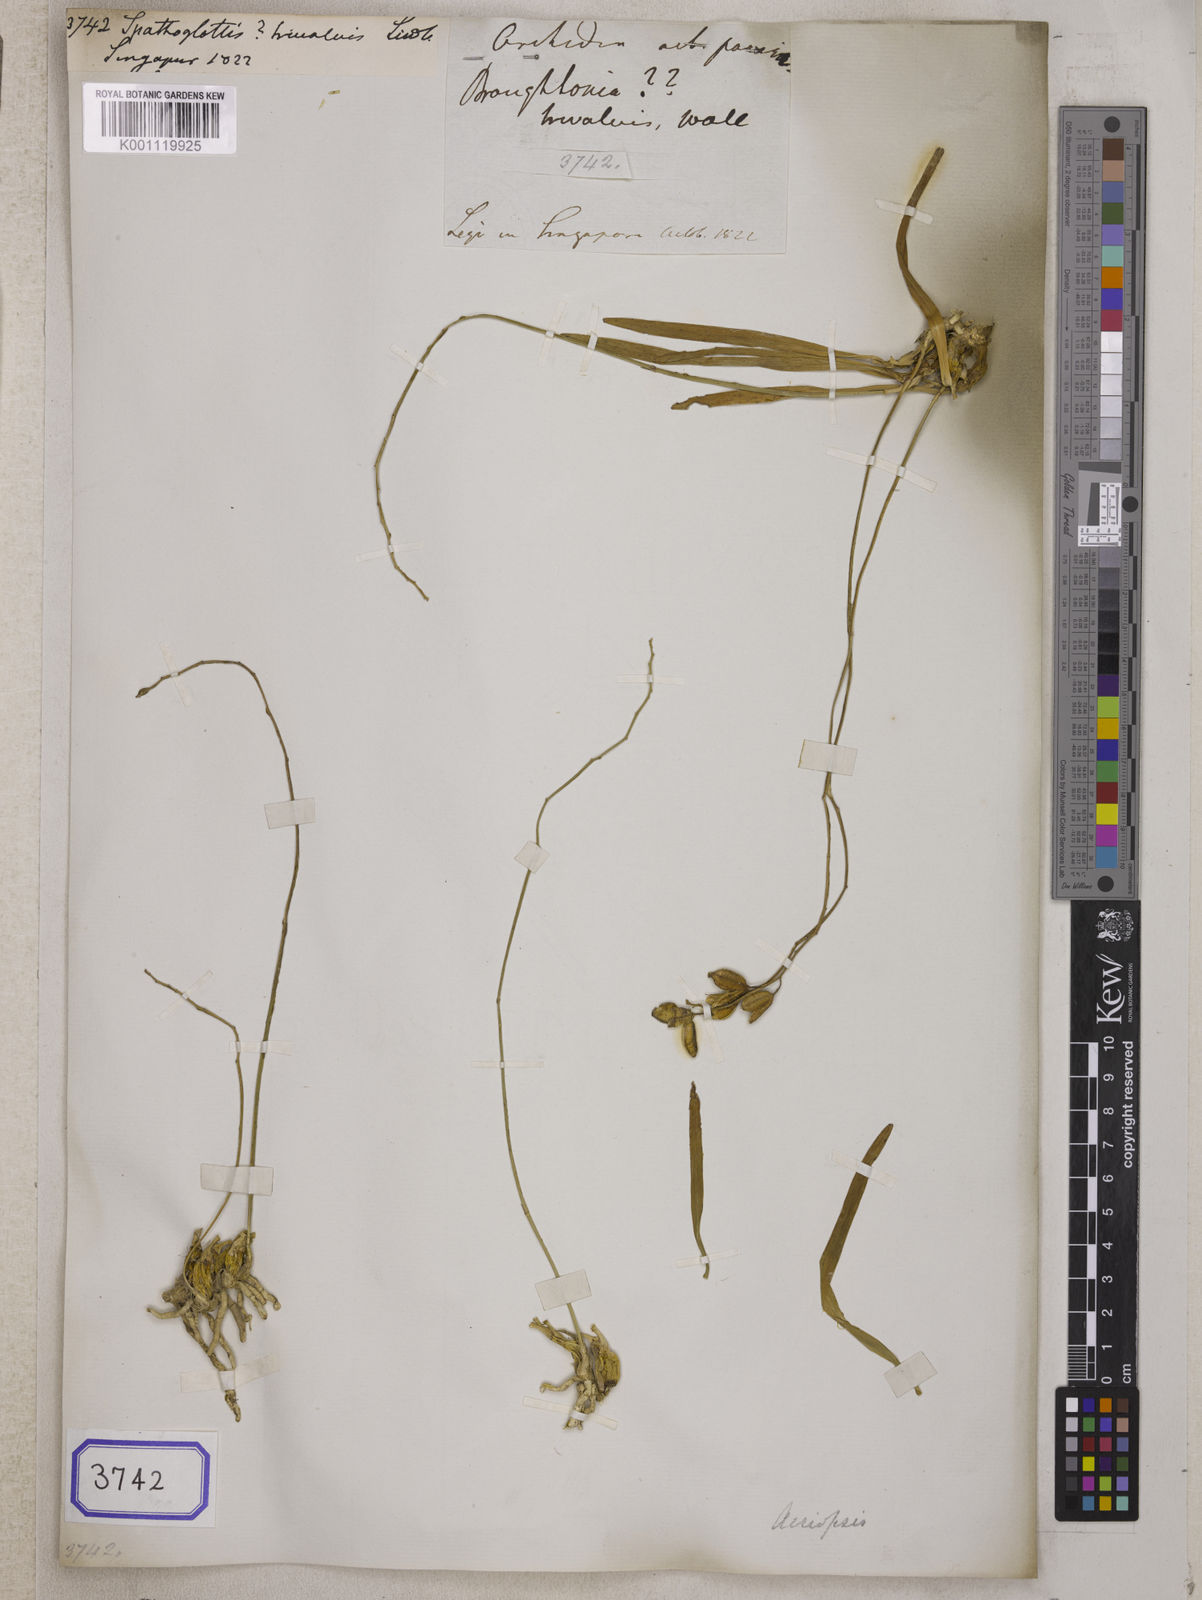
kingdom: Plantae
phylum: Tracheophyta
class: Liliopsida
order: Asparagales
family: Orchidaceae
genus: Acriopsis
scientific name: Acriopsis liliifolia
